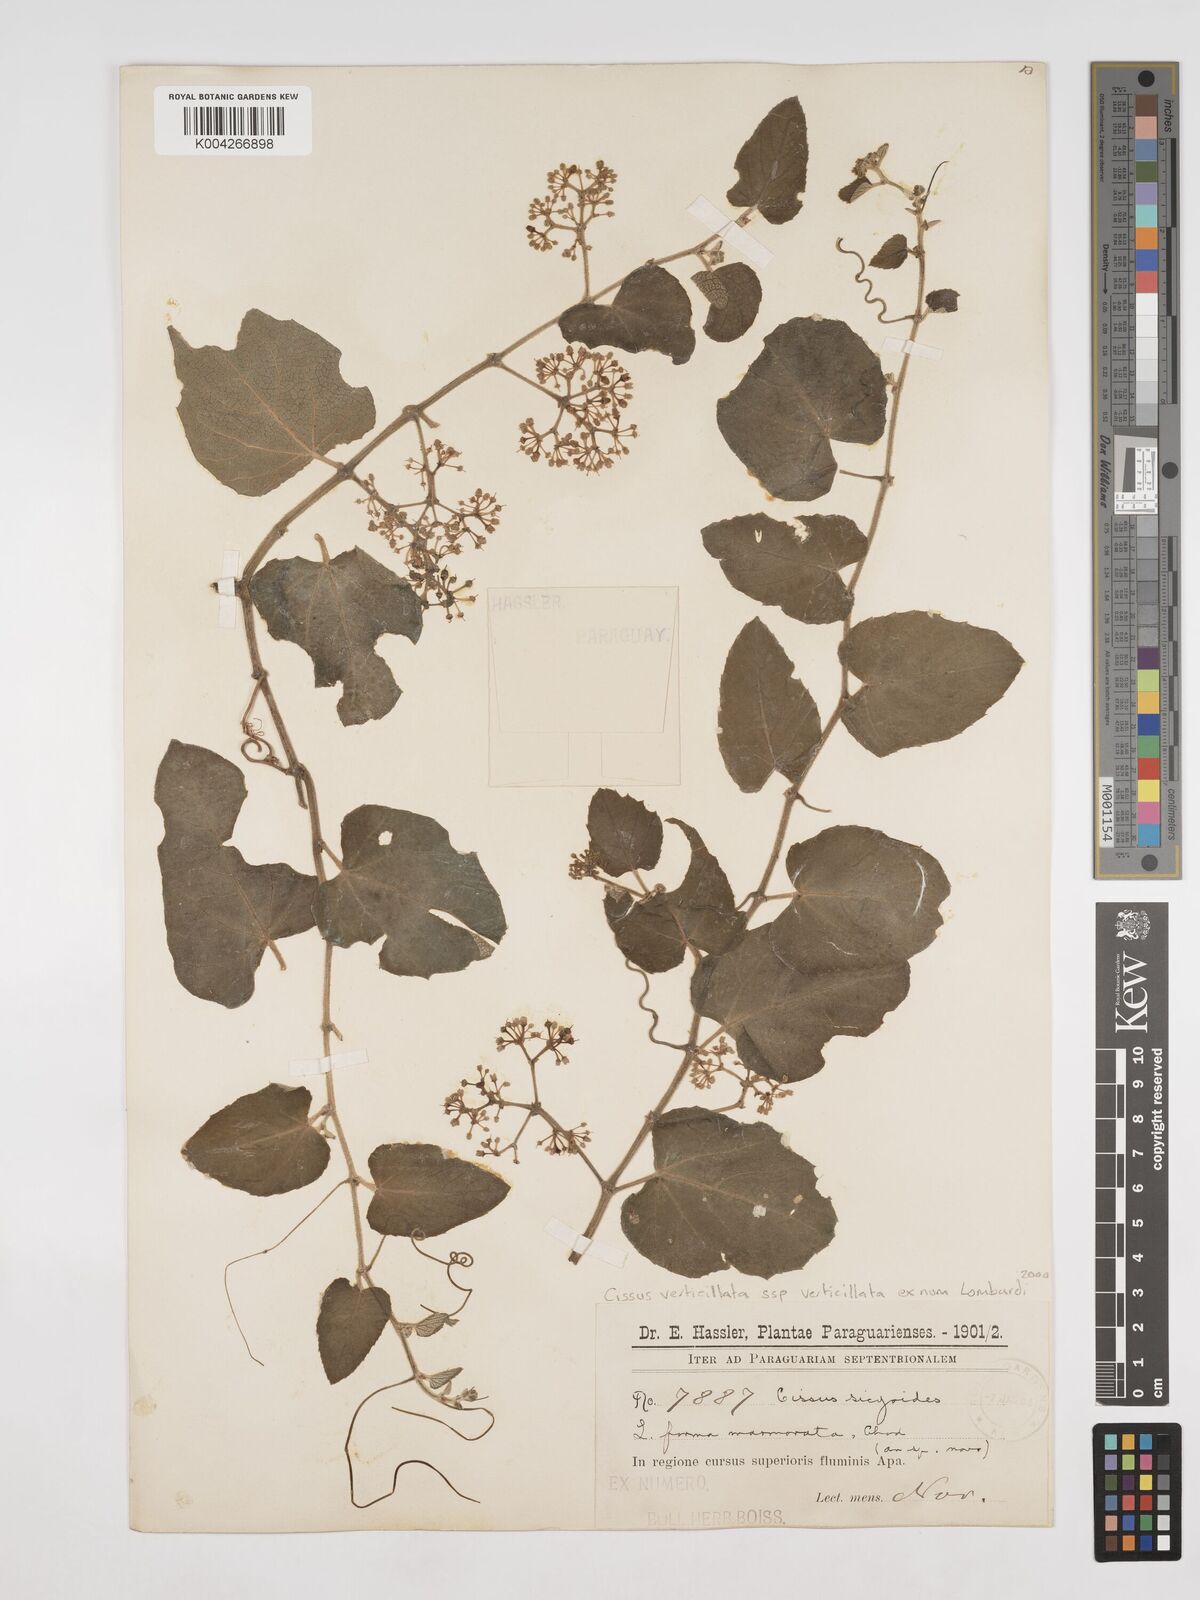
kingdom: Plantae
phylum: Tracheophyta
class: Magnoliopsida
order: Vitales
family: Vitaceae
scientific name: Vitaceae
